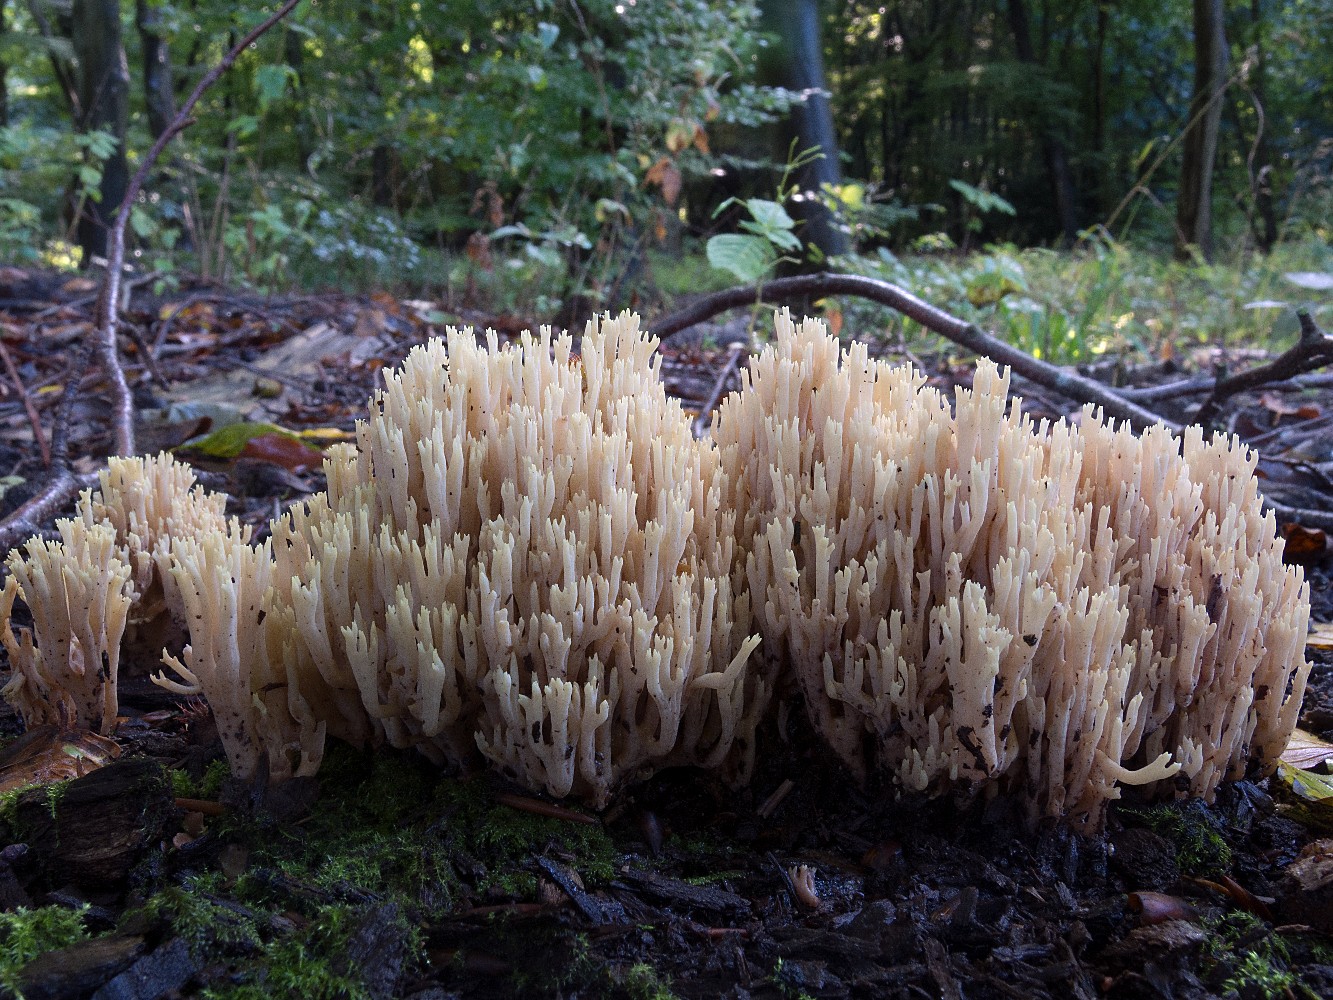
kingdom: Fungi
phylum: Basidiomycota
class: Agaricomycetes
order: Gomphales
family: Gomphaceae
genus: Ramaria
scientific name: Ramaria stricta
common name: rank koralsvamp
